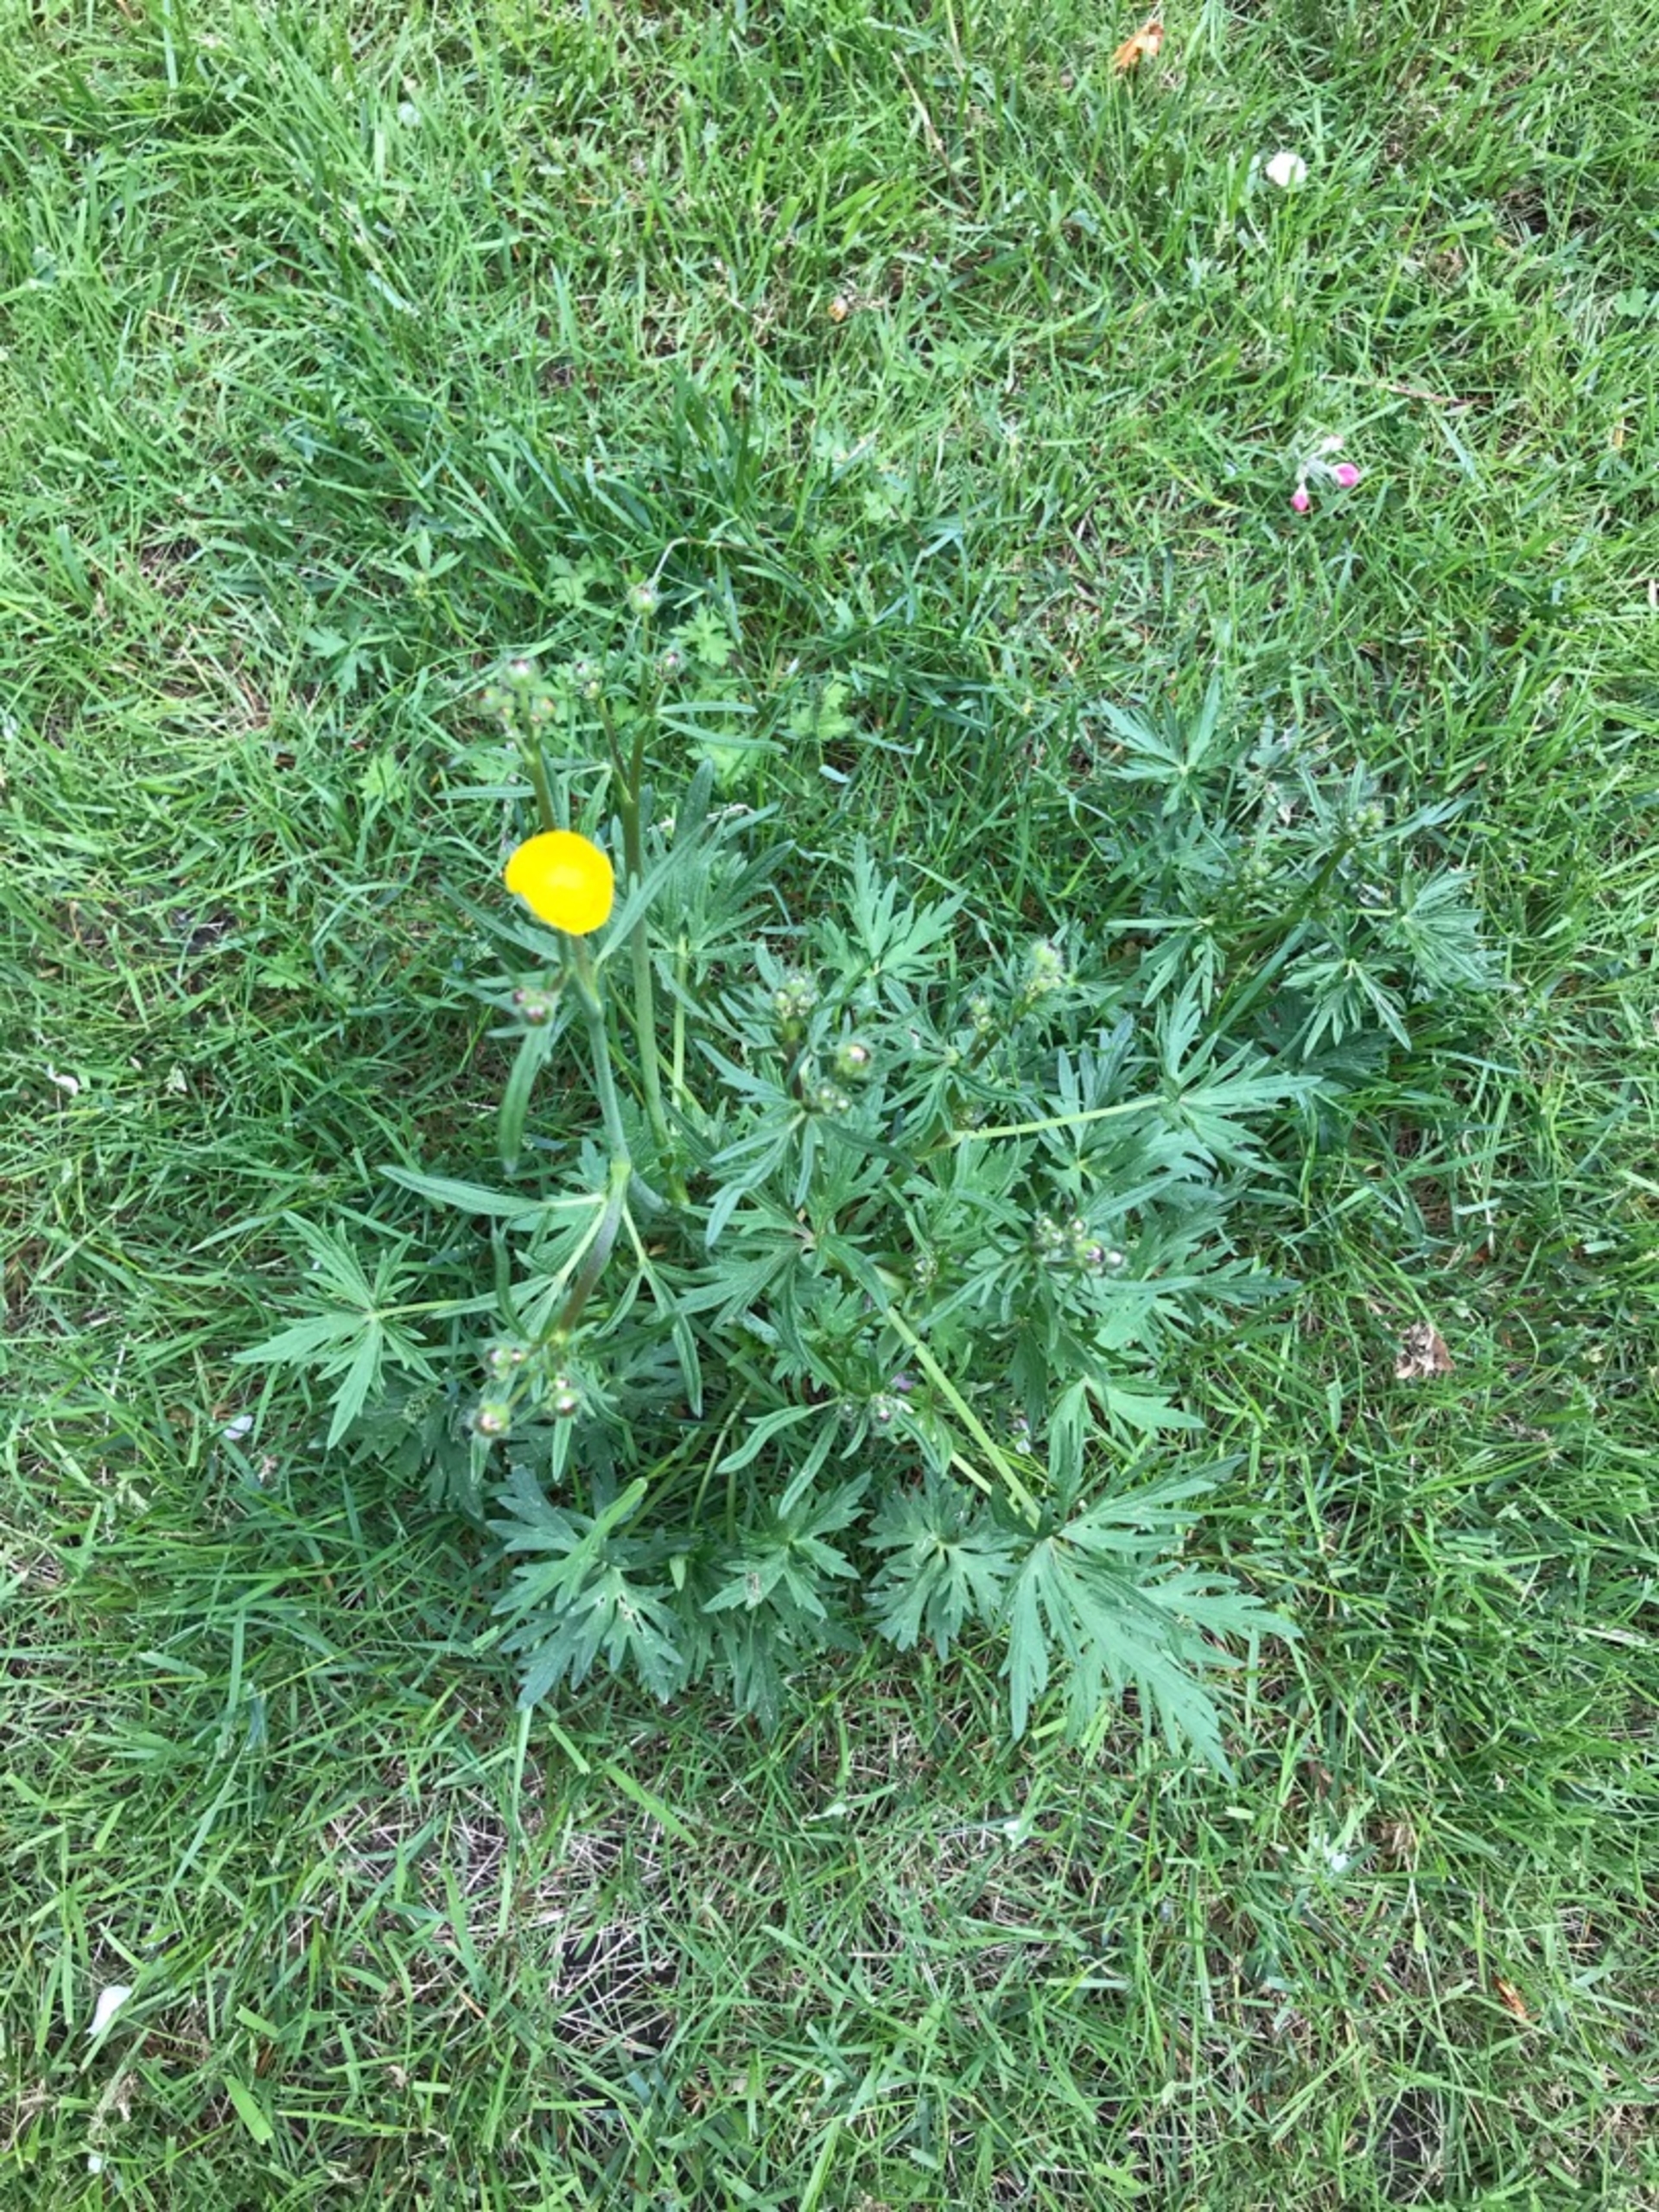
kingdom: Plantae
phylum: Tracheophyta
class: Magnoliopsida
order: Ranunculales
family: Ranunculaceae
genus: Ranunculus
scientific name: Ranunculus acris
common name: Bidende ranunkel
